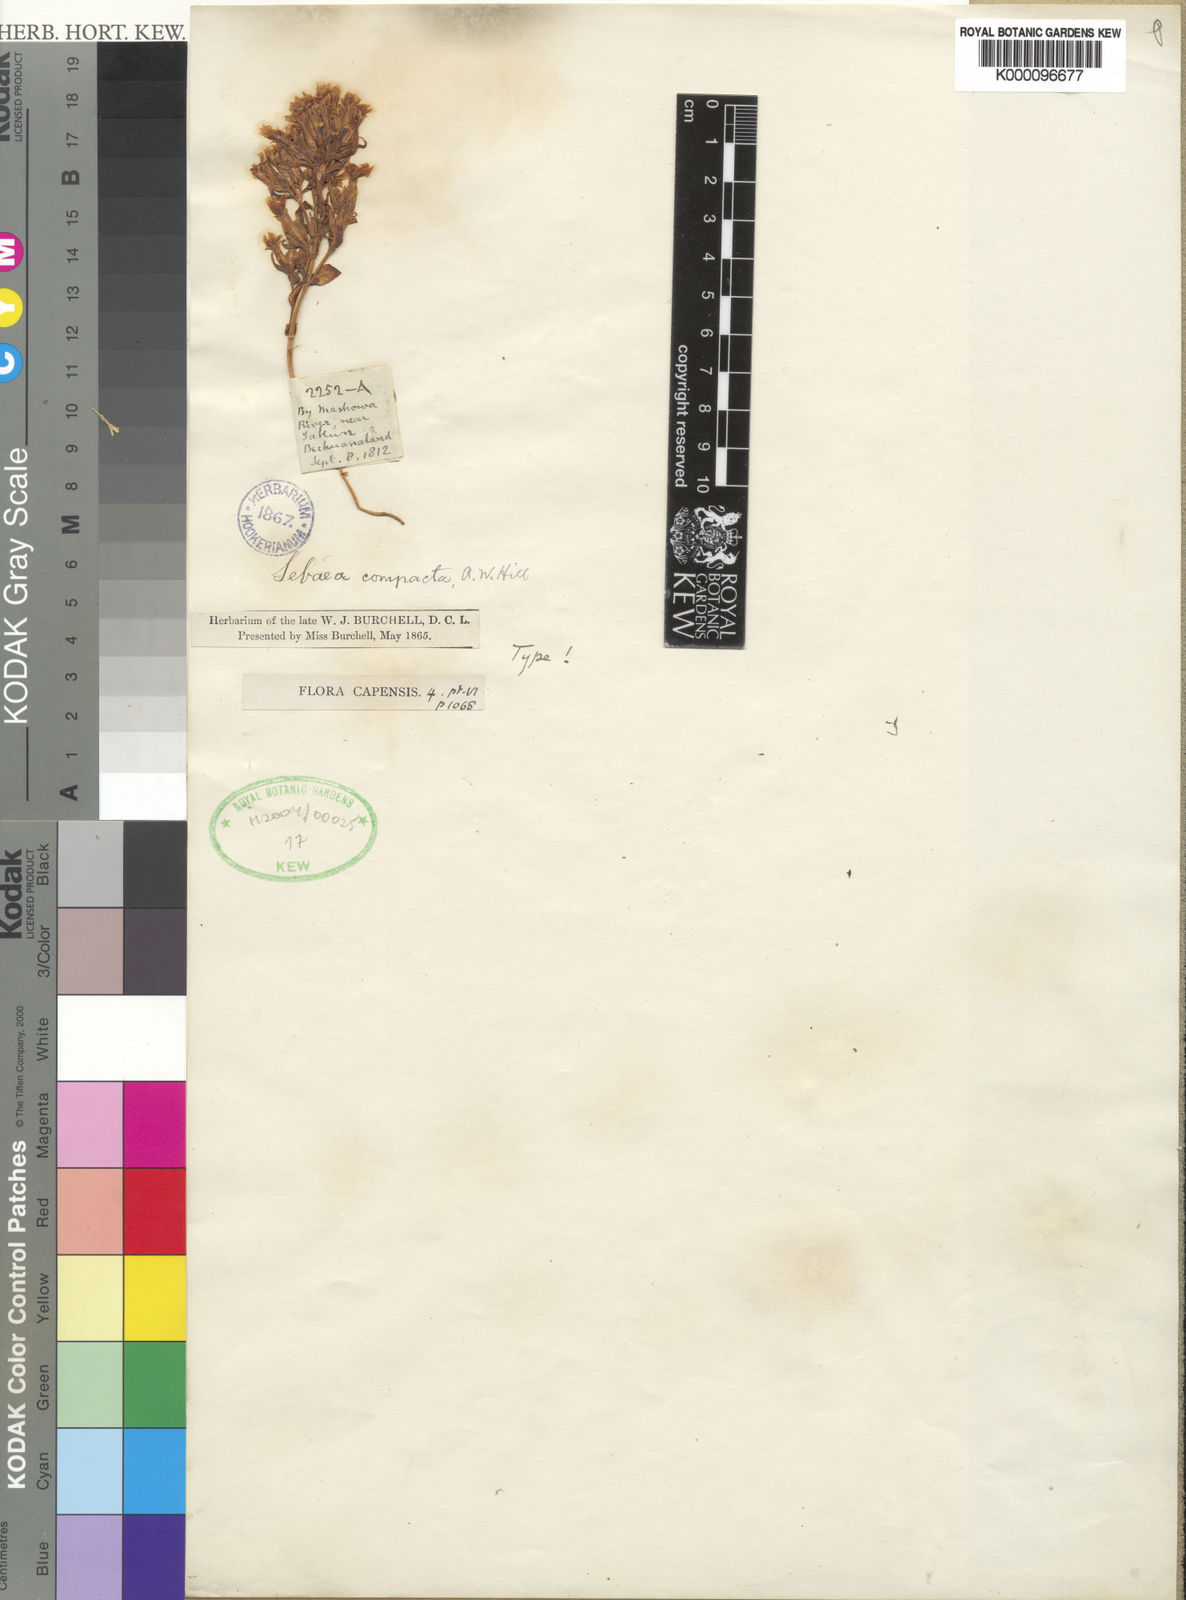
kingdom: Plantae
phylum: Tracheophyta
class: Magnoliopsida
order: Gentianales
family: Gentianaceae
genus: Sebaea
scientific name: Sebaea compacta
